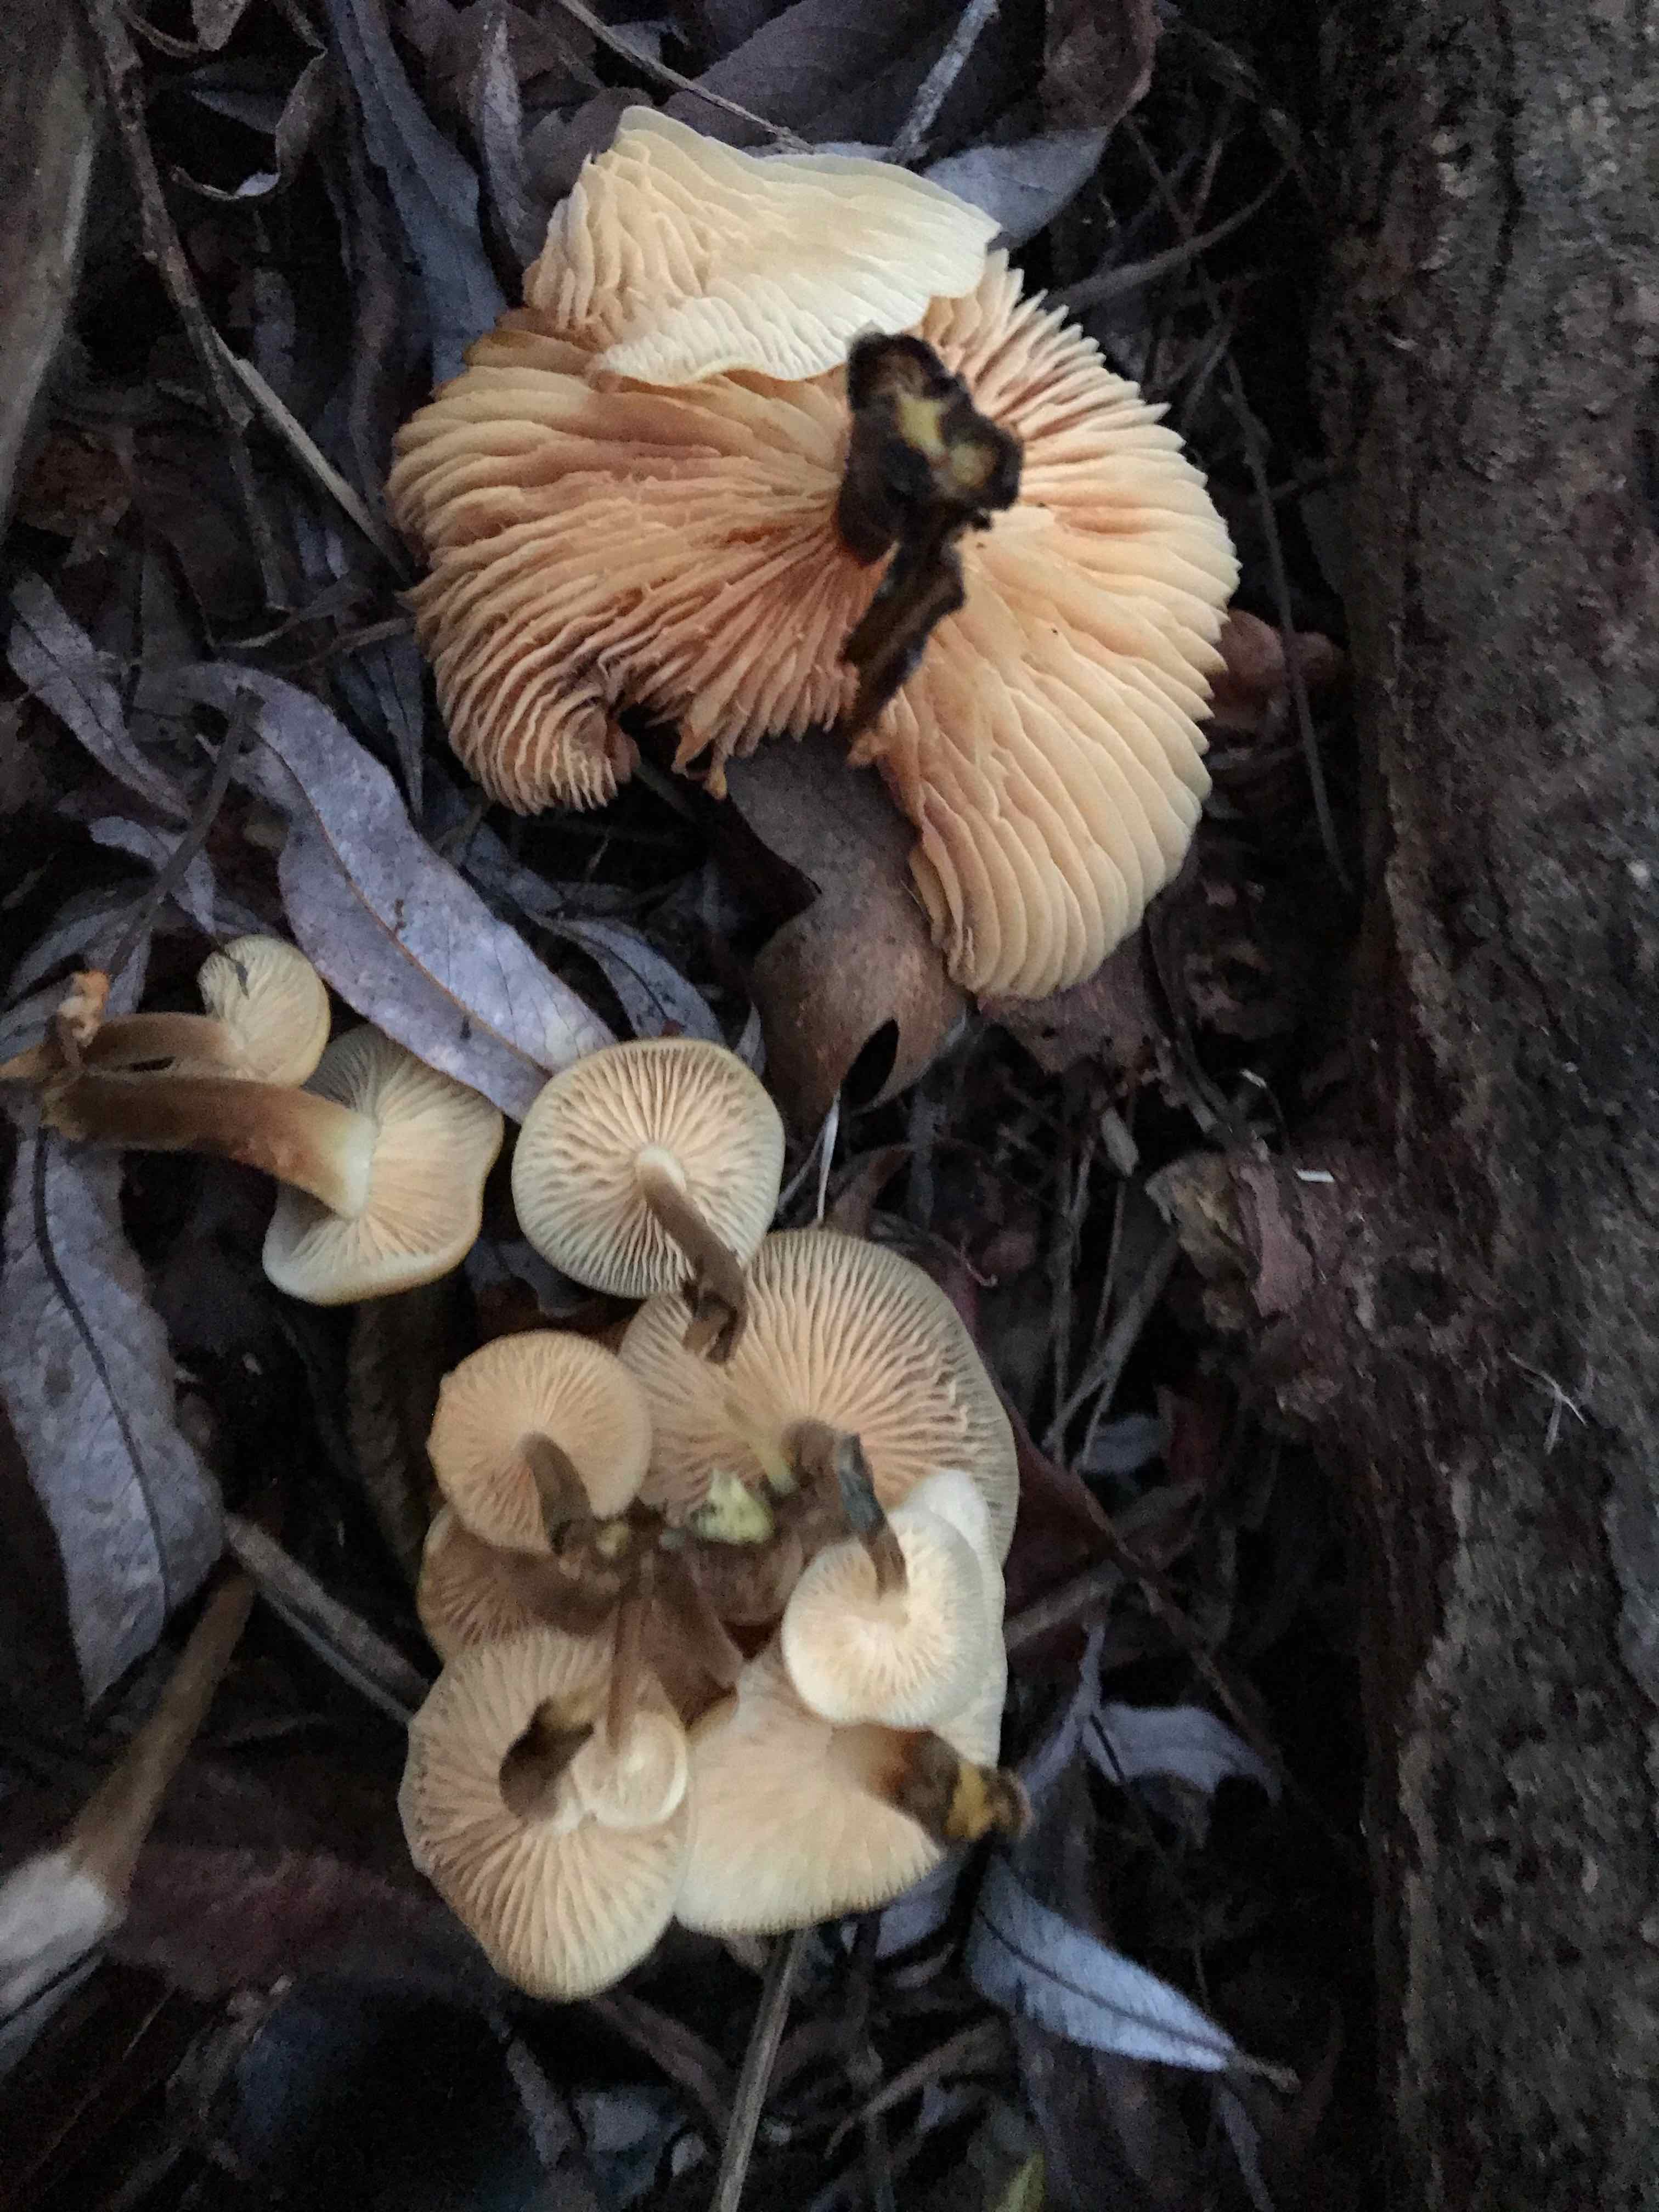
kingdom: Fungi
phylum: Basidiomycota
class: Agaricomycetes
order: Agaricales
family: Physalacriaceae
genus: Flammulina
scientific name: Flammulina
